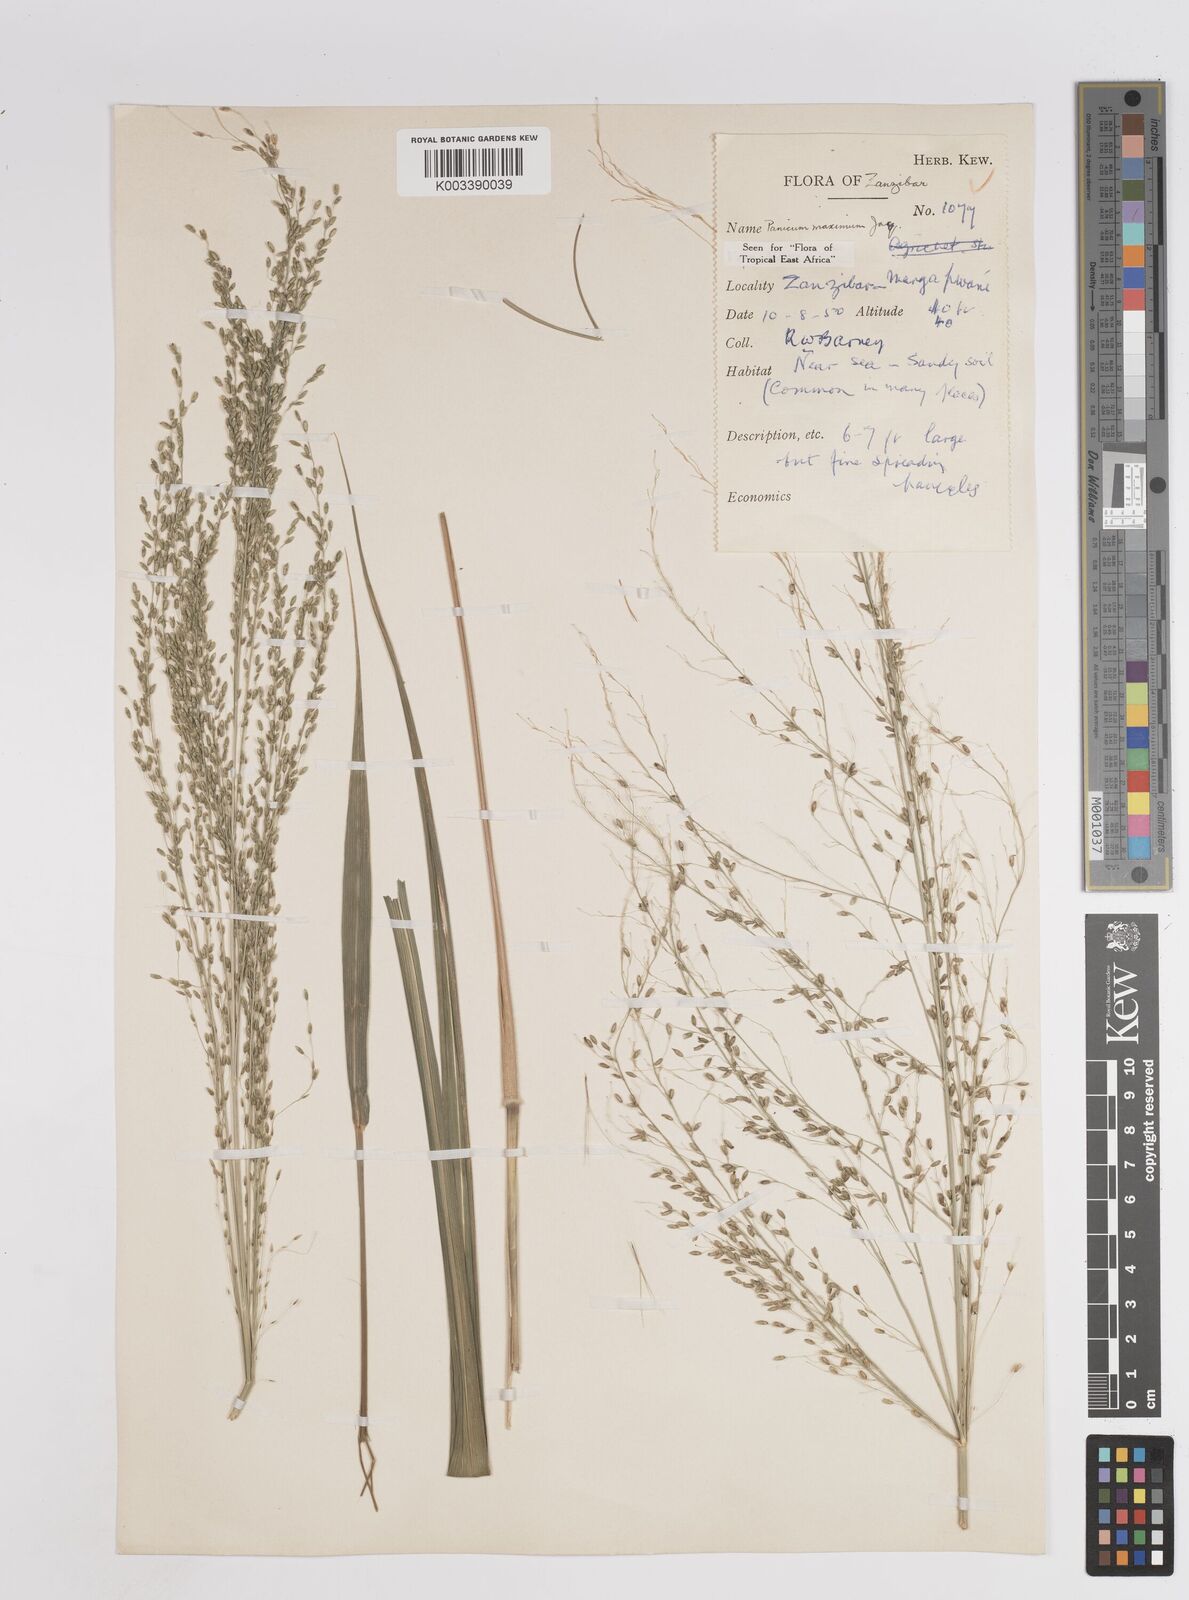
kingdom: Plantae
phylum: Tracheophyta
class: Liliopsida
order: Poales
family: Poaceae
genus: Megathyrsus
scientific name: Megathyrsus maximus
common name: Guineagrass
